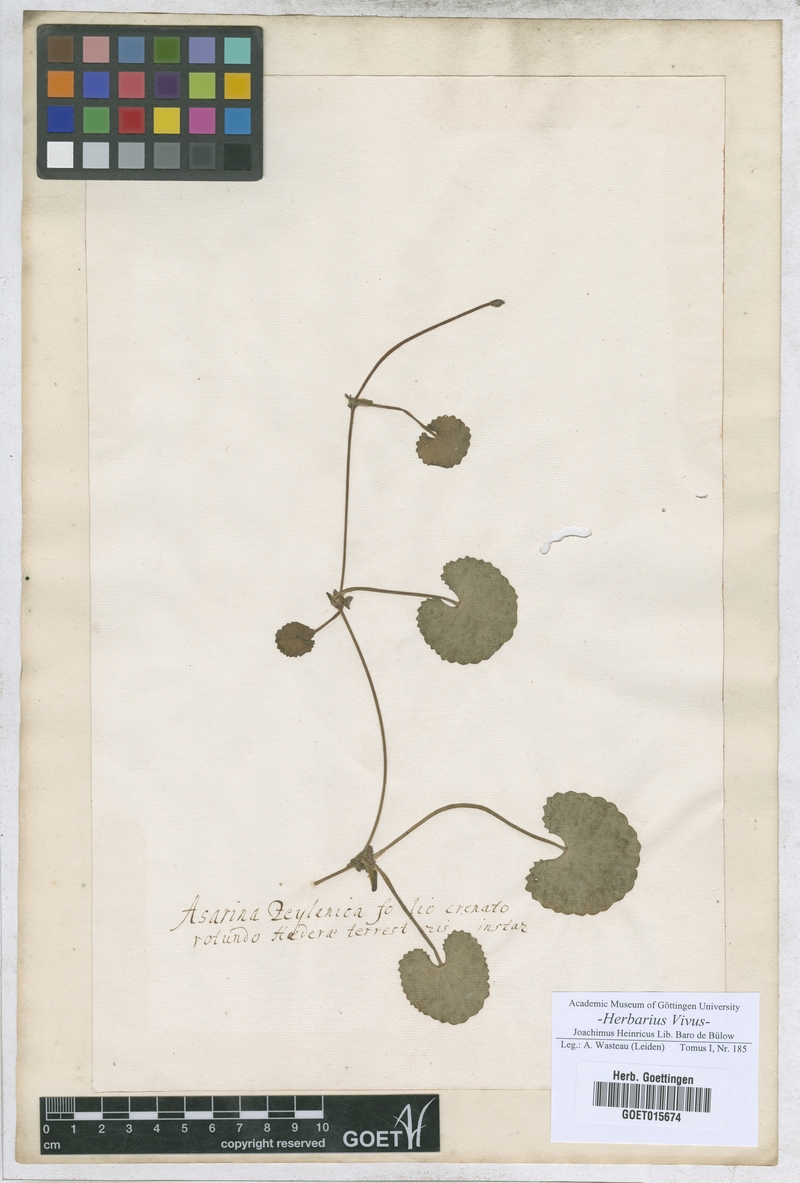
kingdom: Plantae
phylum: Tracheophyta
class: Magnoliopsida
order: Lamiales
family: Plantaginaceae
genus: Asarina
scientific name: Asarina
